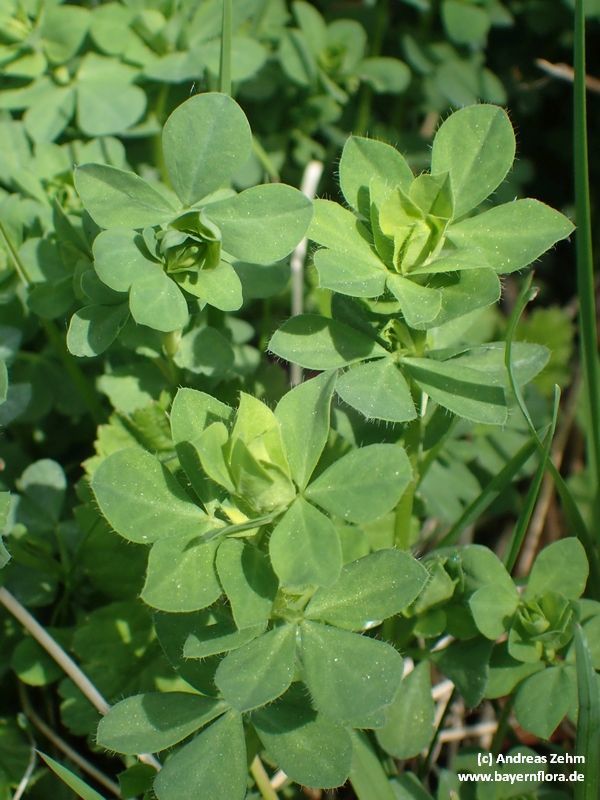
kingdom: Plantae
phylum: Tracheophyta
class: Magnoliopsida
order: Fabales
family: Fabaceae
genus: Lotus
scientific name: Lotus
